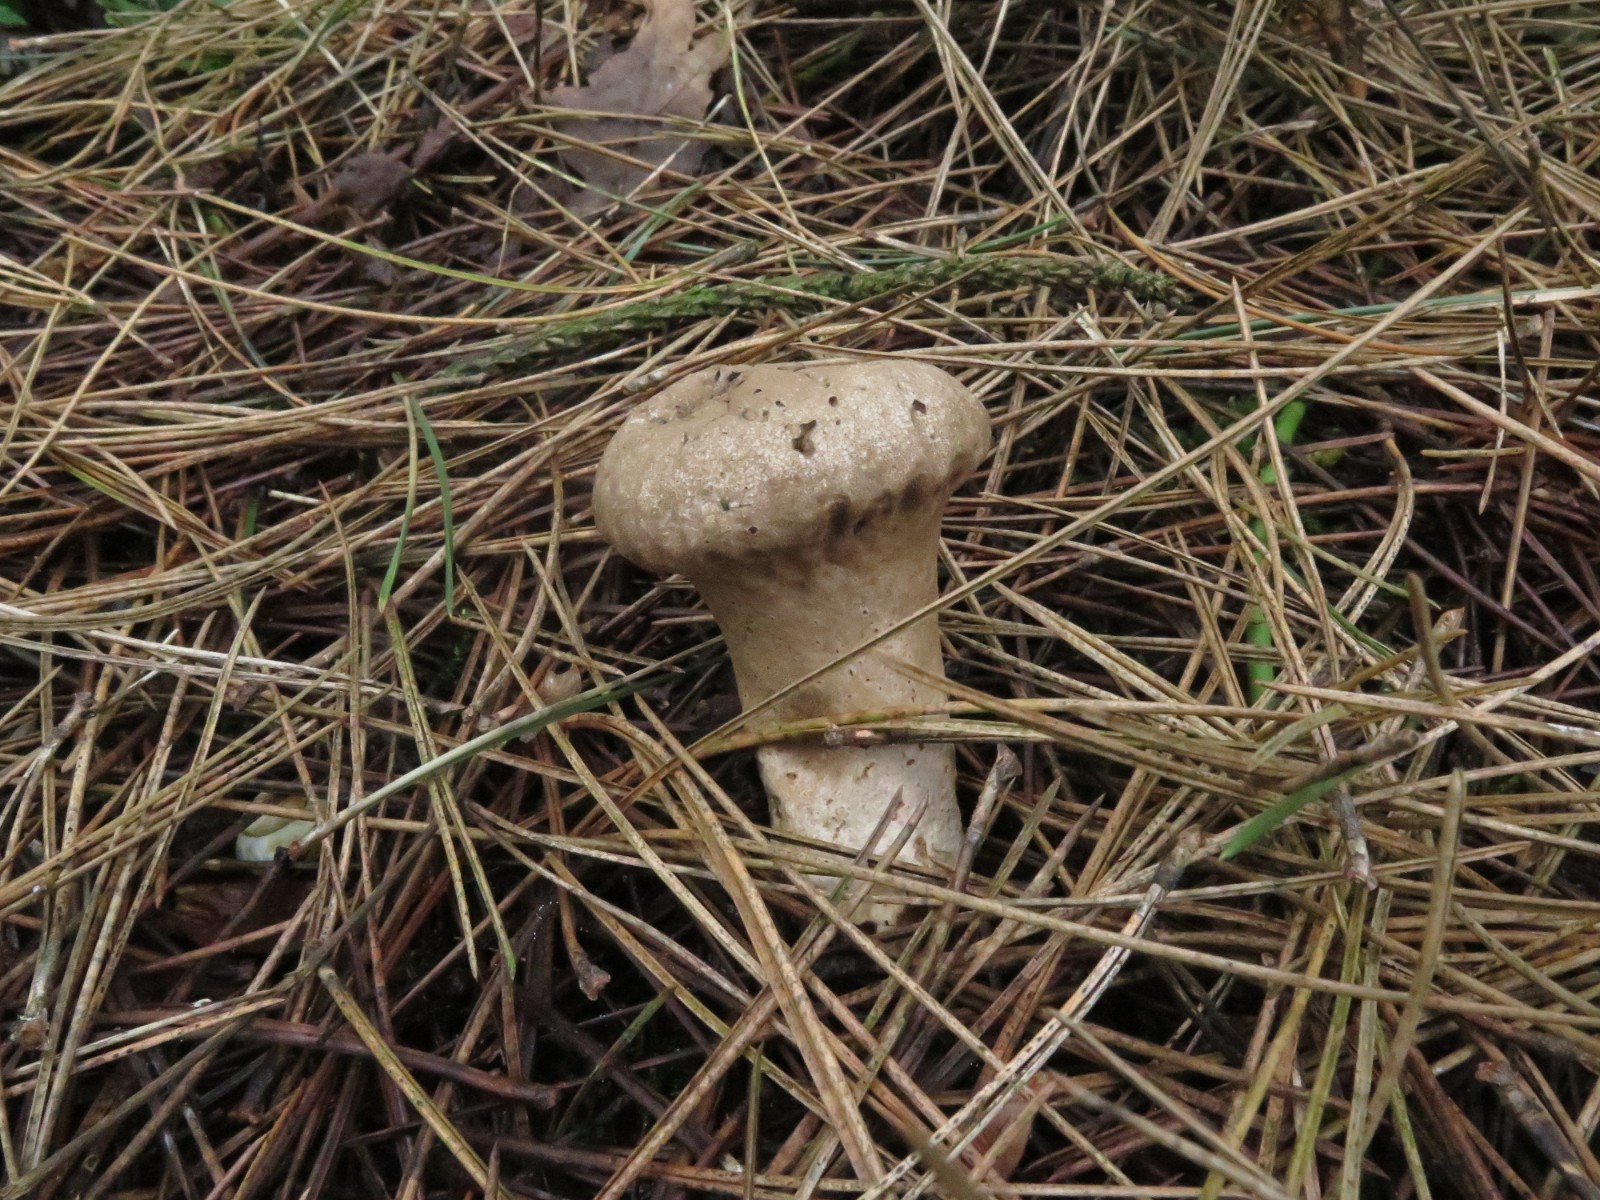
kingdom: Fungi
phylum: Basidiomycota
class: Agaricomycetes
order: Agaricales
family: Lycoperdaceae
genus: Lycoperdon
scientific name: Lycoperdon excipuliforme
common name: højstokket støvbold
